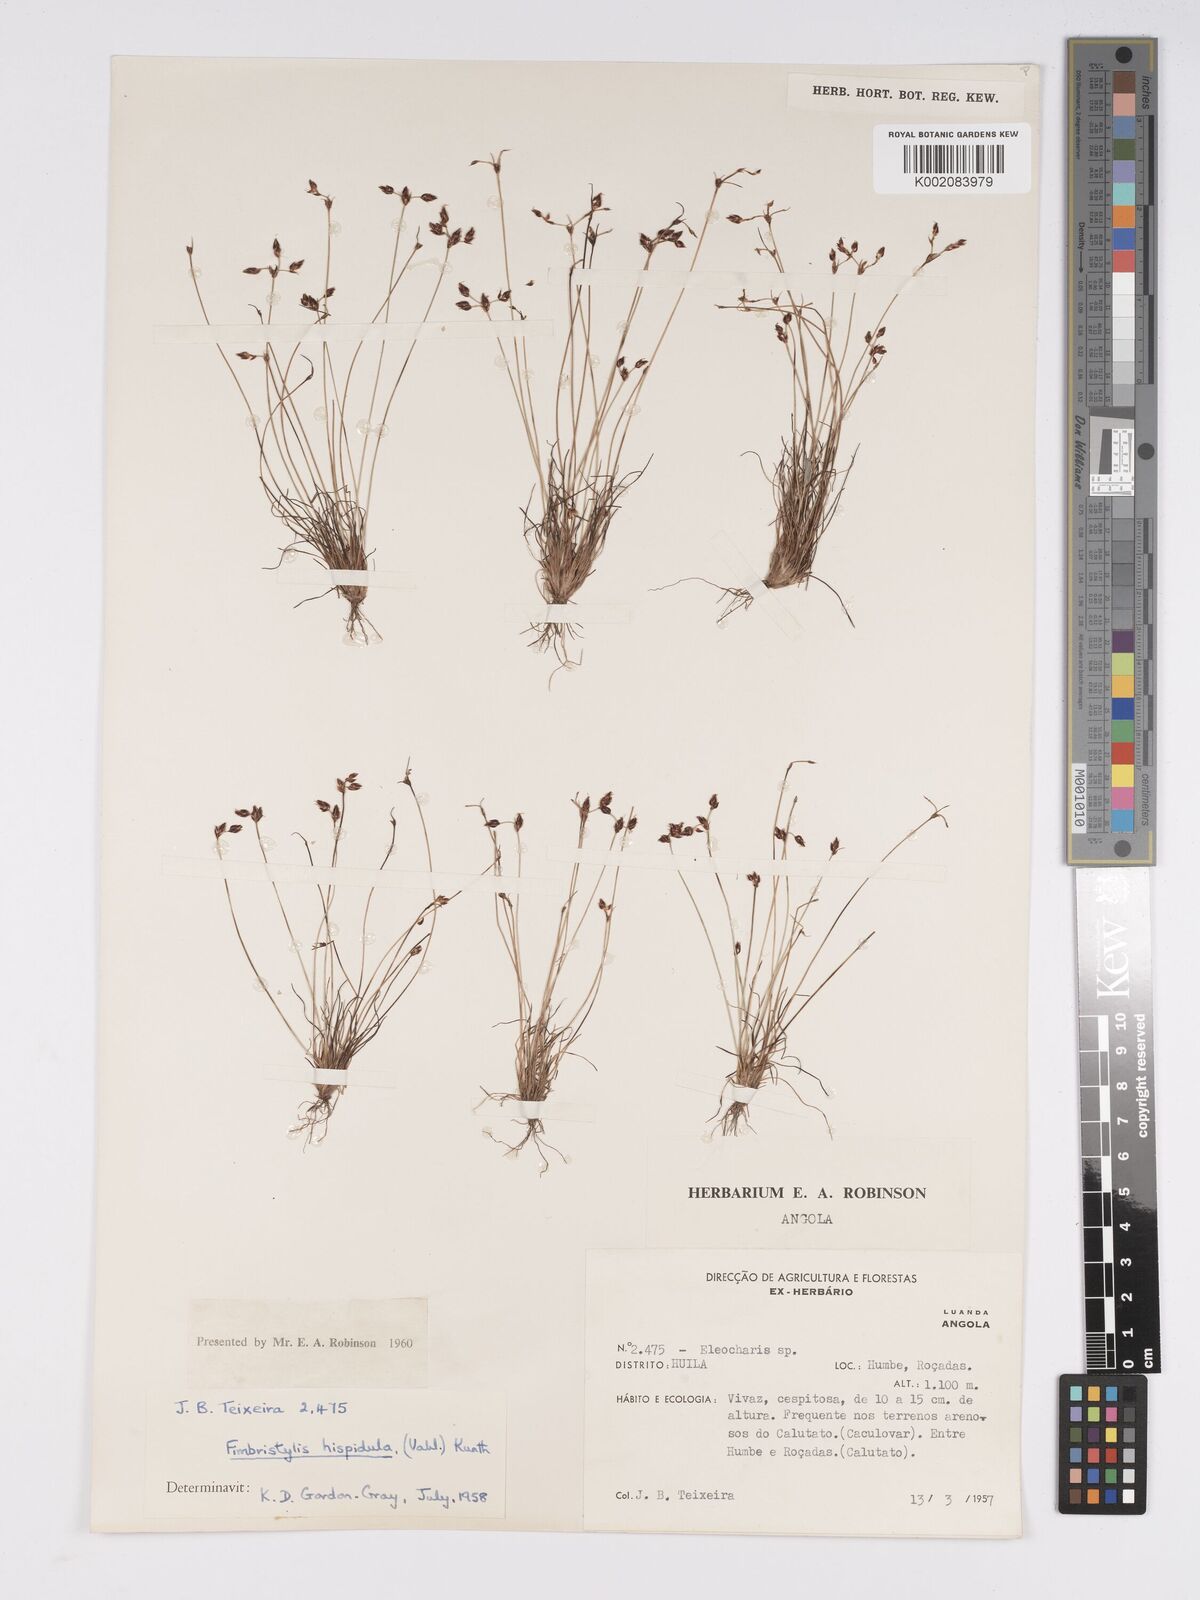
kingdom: Plantae
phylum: Tracheophyta
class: Liliopsida
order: Poales
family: Cyperaceae
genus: Bulbostylis
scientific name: Bulbostylis hispidula
